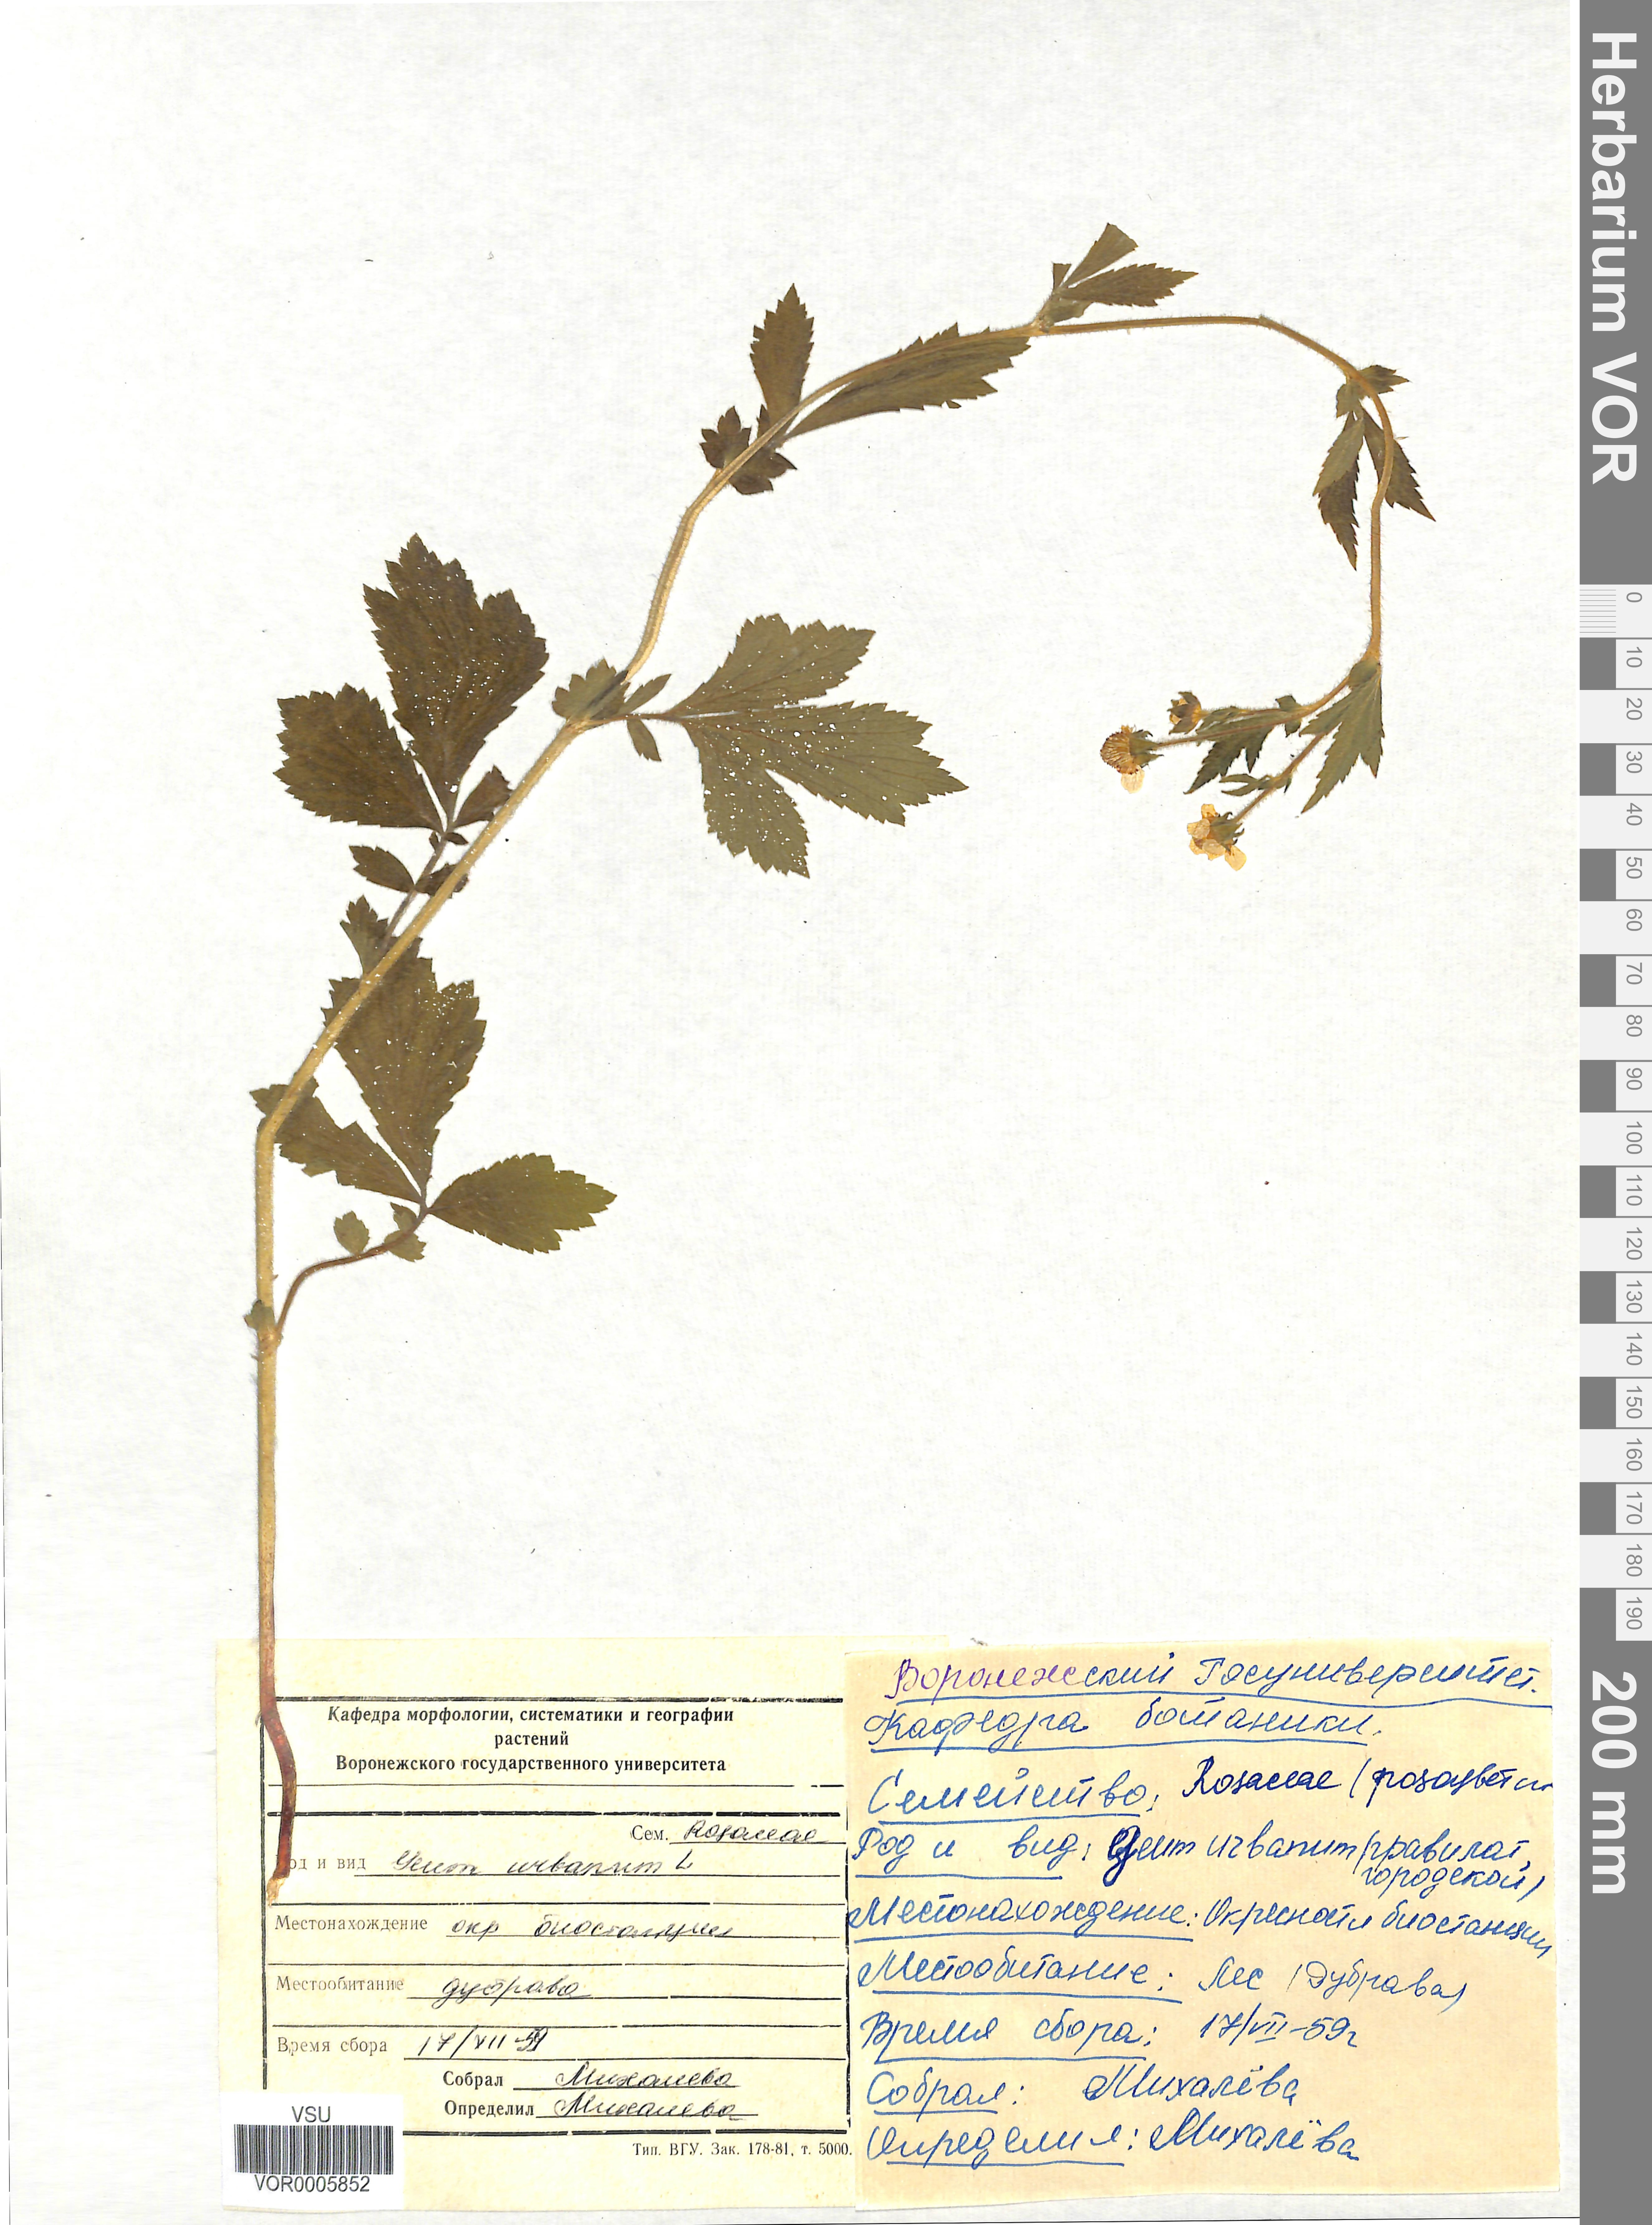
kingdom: Plantae
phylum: Tracheophyta
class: Magnoliopsida
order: Rosales
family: Rosaceae
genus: Geum
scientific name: Geum urbanum
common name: Wood avens
